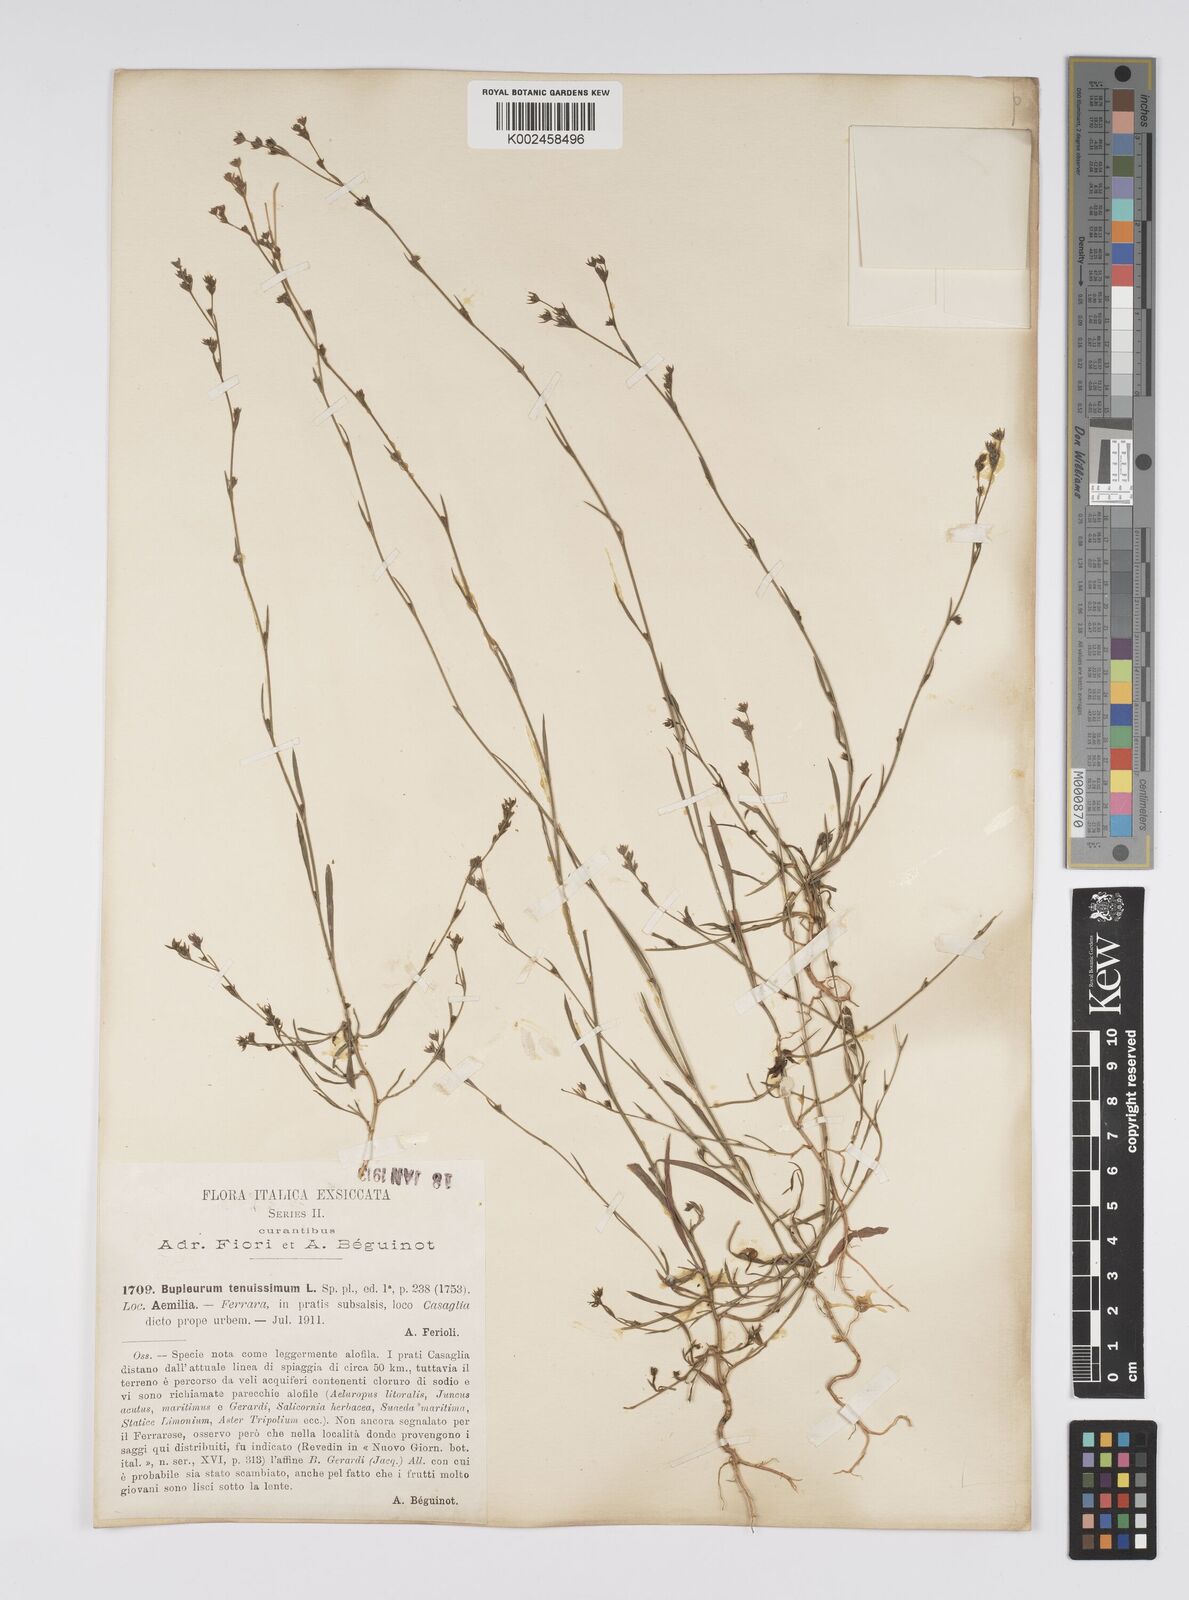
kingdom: Plantae
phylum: Tracheophyta
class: Magnoliopsida
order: Apiales
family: Apiaceae
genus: Bupleurum
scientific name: Bupleurum tenuissimum
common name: Slender hare's-ear
